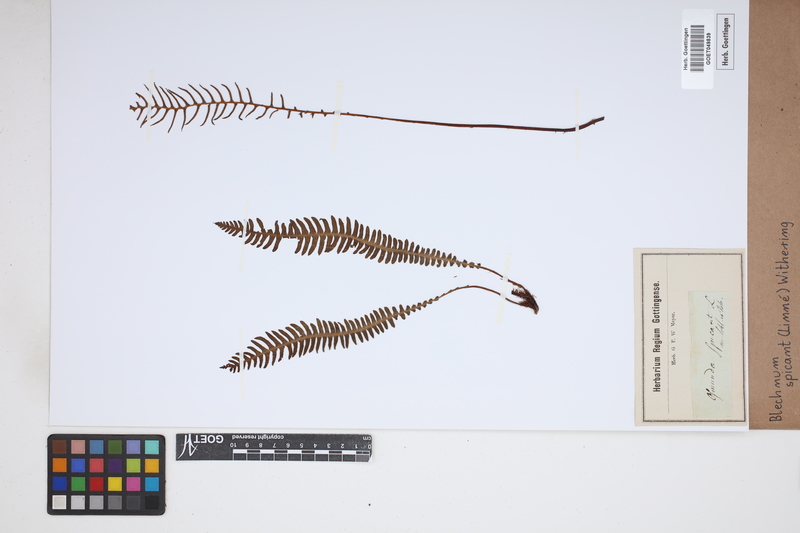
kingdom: Plantae
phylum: Tracheophyta
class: Polypodiopsida
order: Polypodiales
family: Blechnaceae
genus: Struthiopteris
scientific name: Struthiopteris spicant
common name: Deer fern
